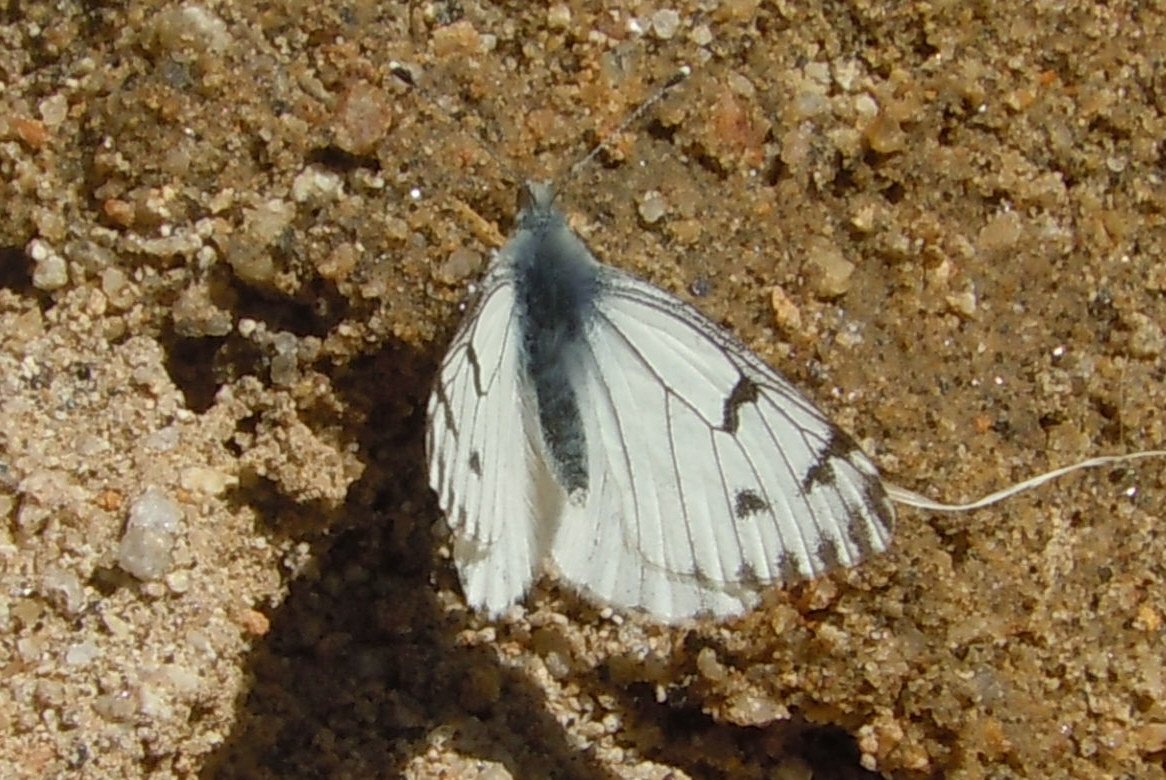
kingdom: Animalia
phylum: Arthropoda
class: Insecta
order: Lepidoptera
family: Pieridae
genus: Pontia
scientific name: Pontia sisymbrii
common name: Spring White
